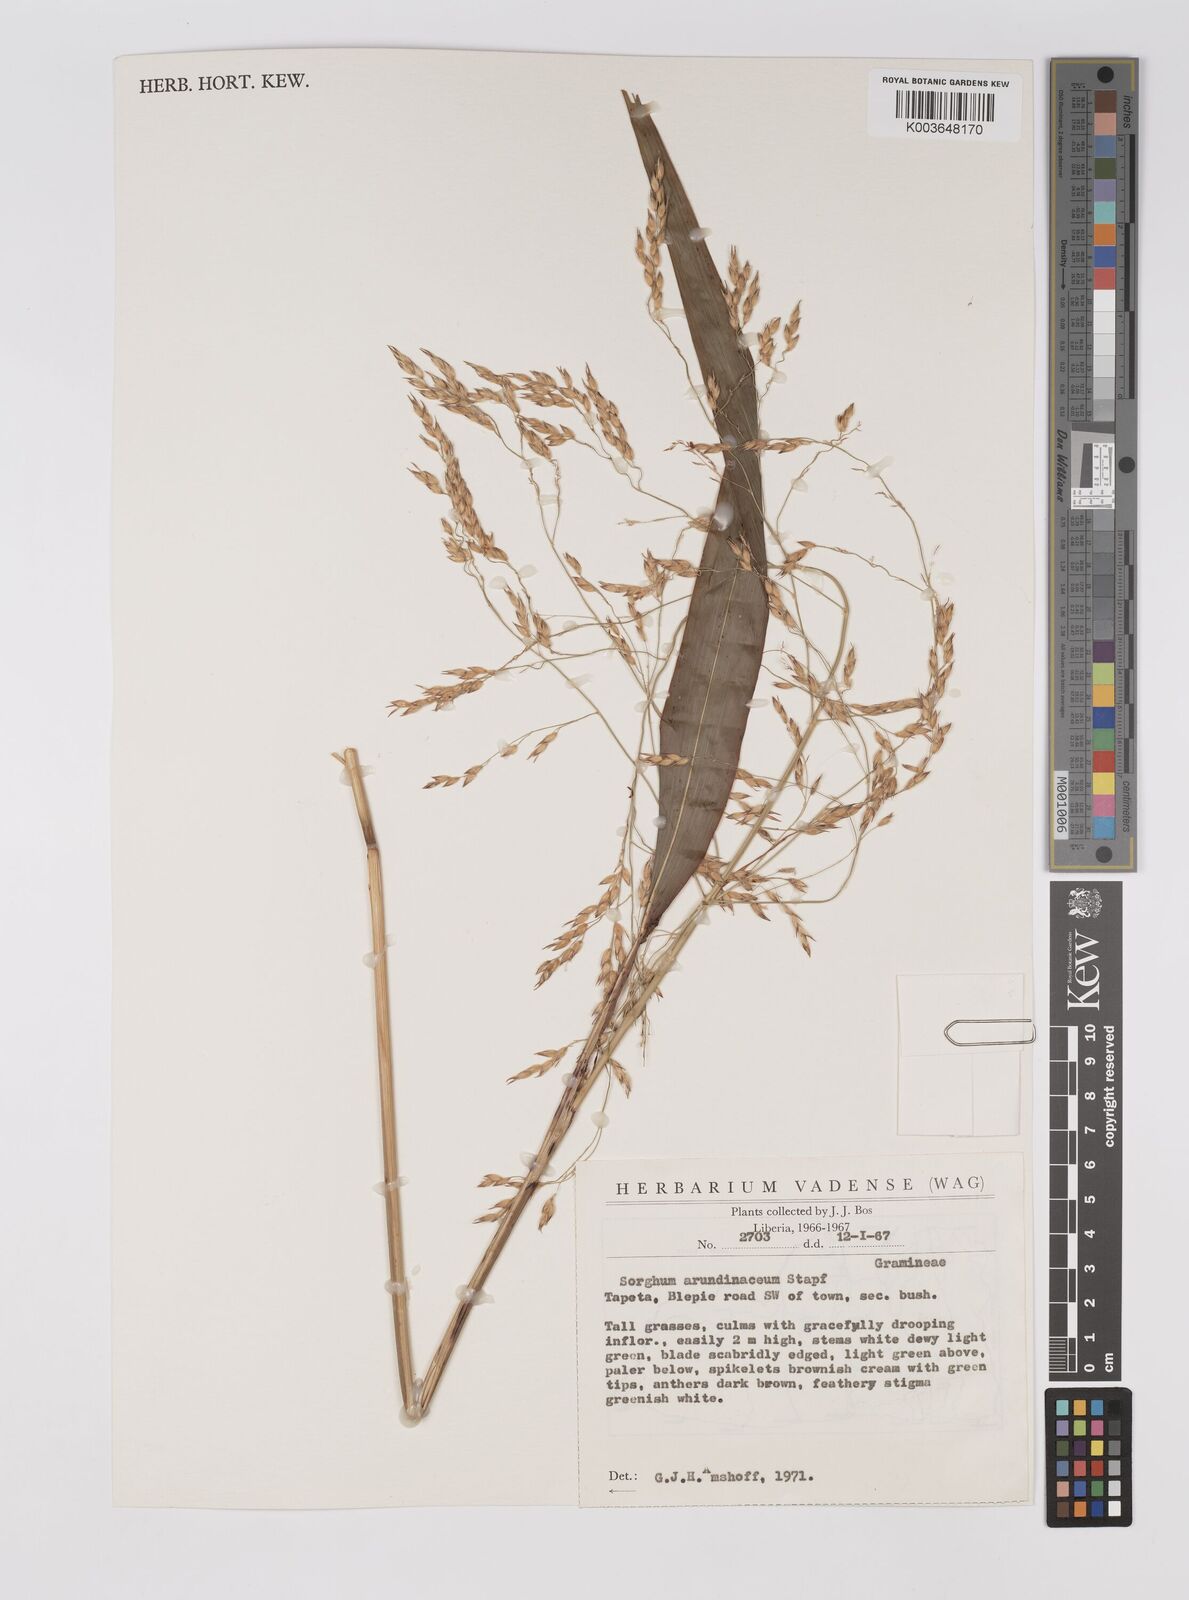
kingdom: Plantae
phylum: Tracheophyta
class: Liliopsida
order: Poales
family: Poaceae
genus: Sorghum
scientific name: Sorghum arundinaceum
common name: Sorghum
